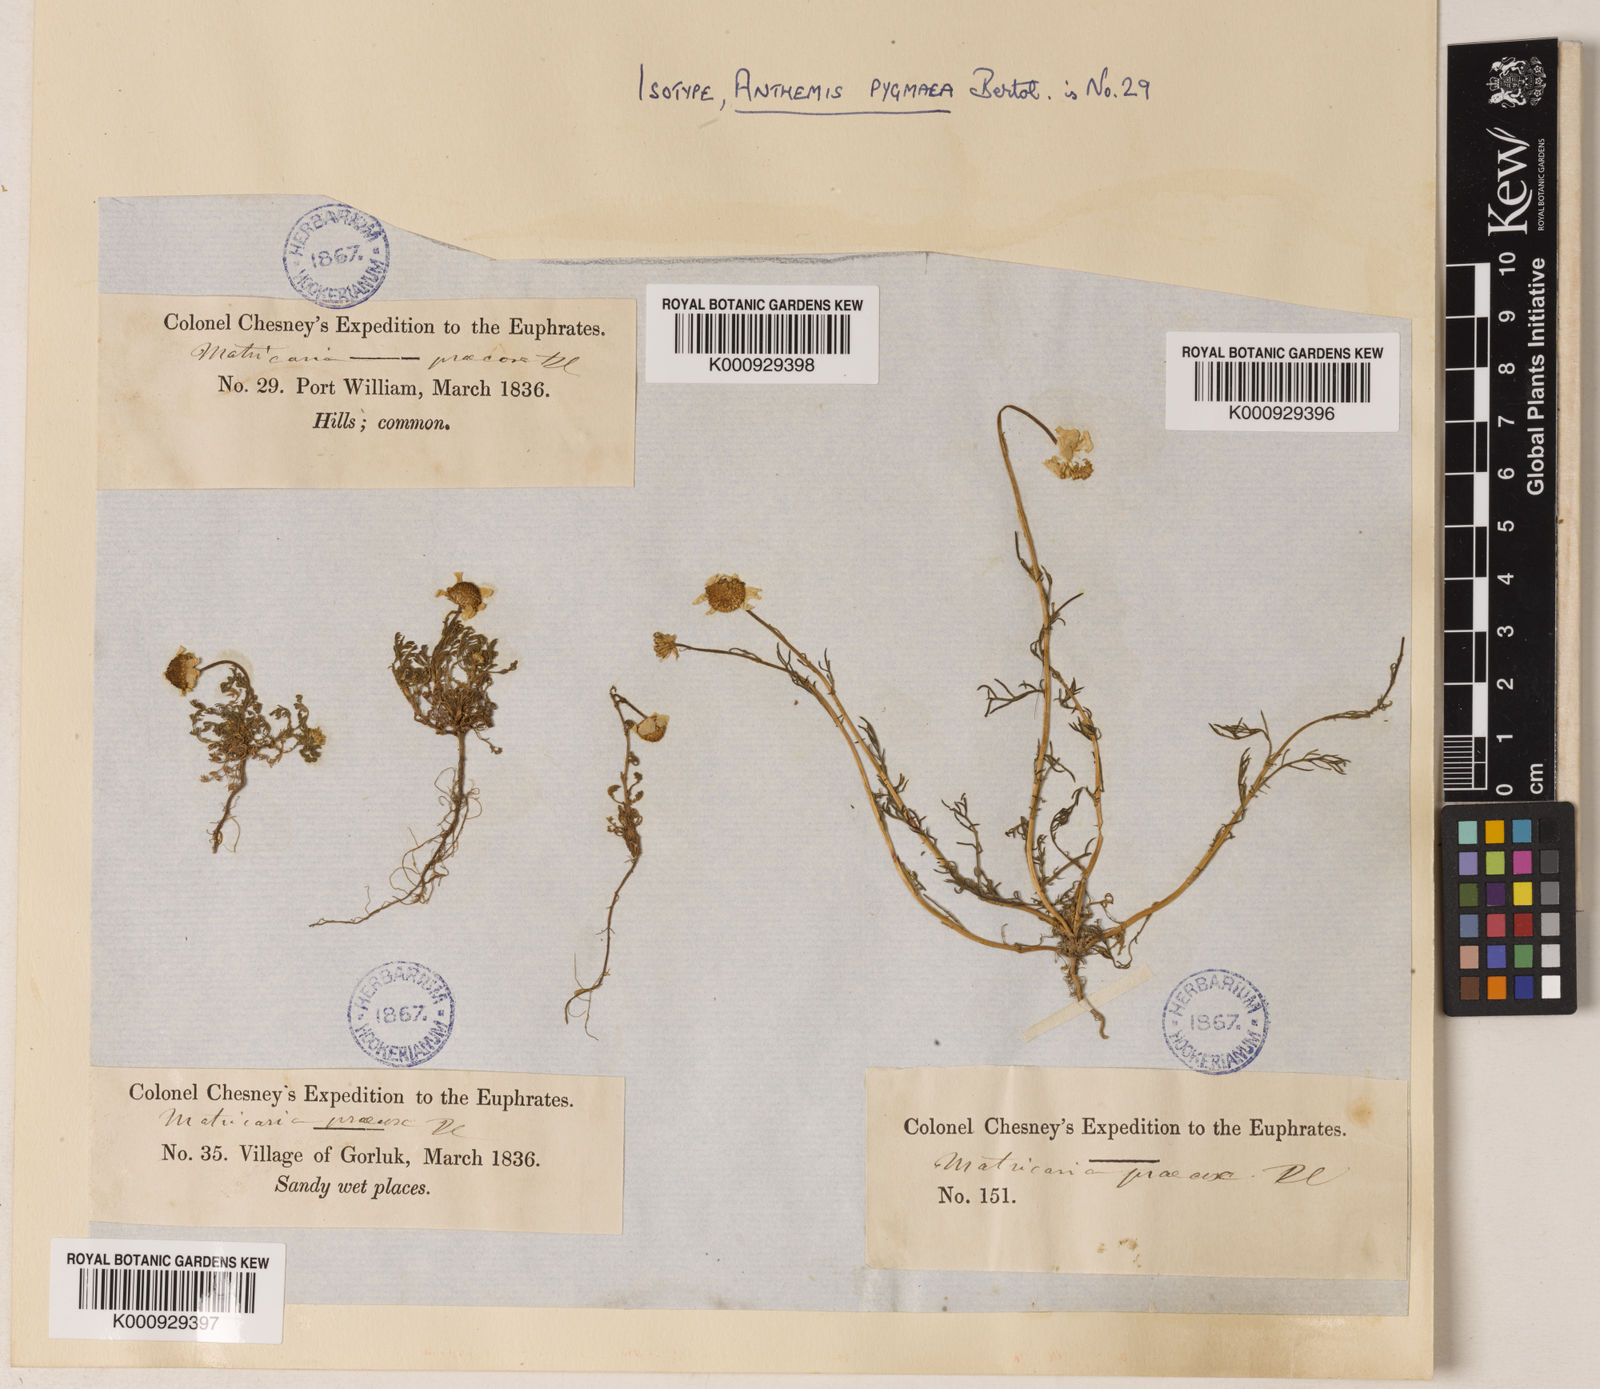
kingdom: Plantae
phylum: Tracheophyta
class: Magnoliopsida
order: Asterales
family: Asteraceae
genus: Tripleurospermum
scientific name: Tripleurospermum parviflorum
